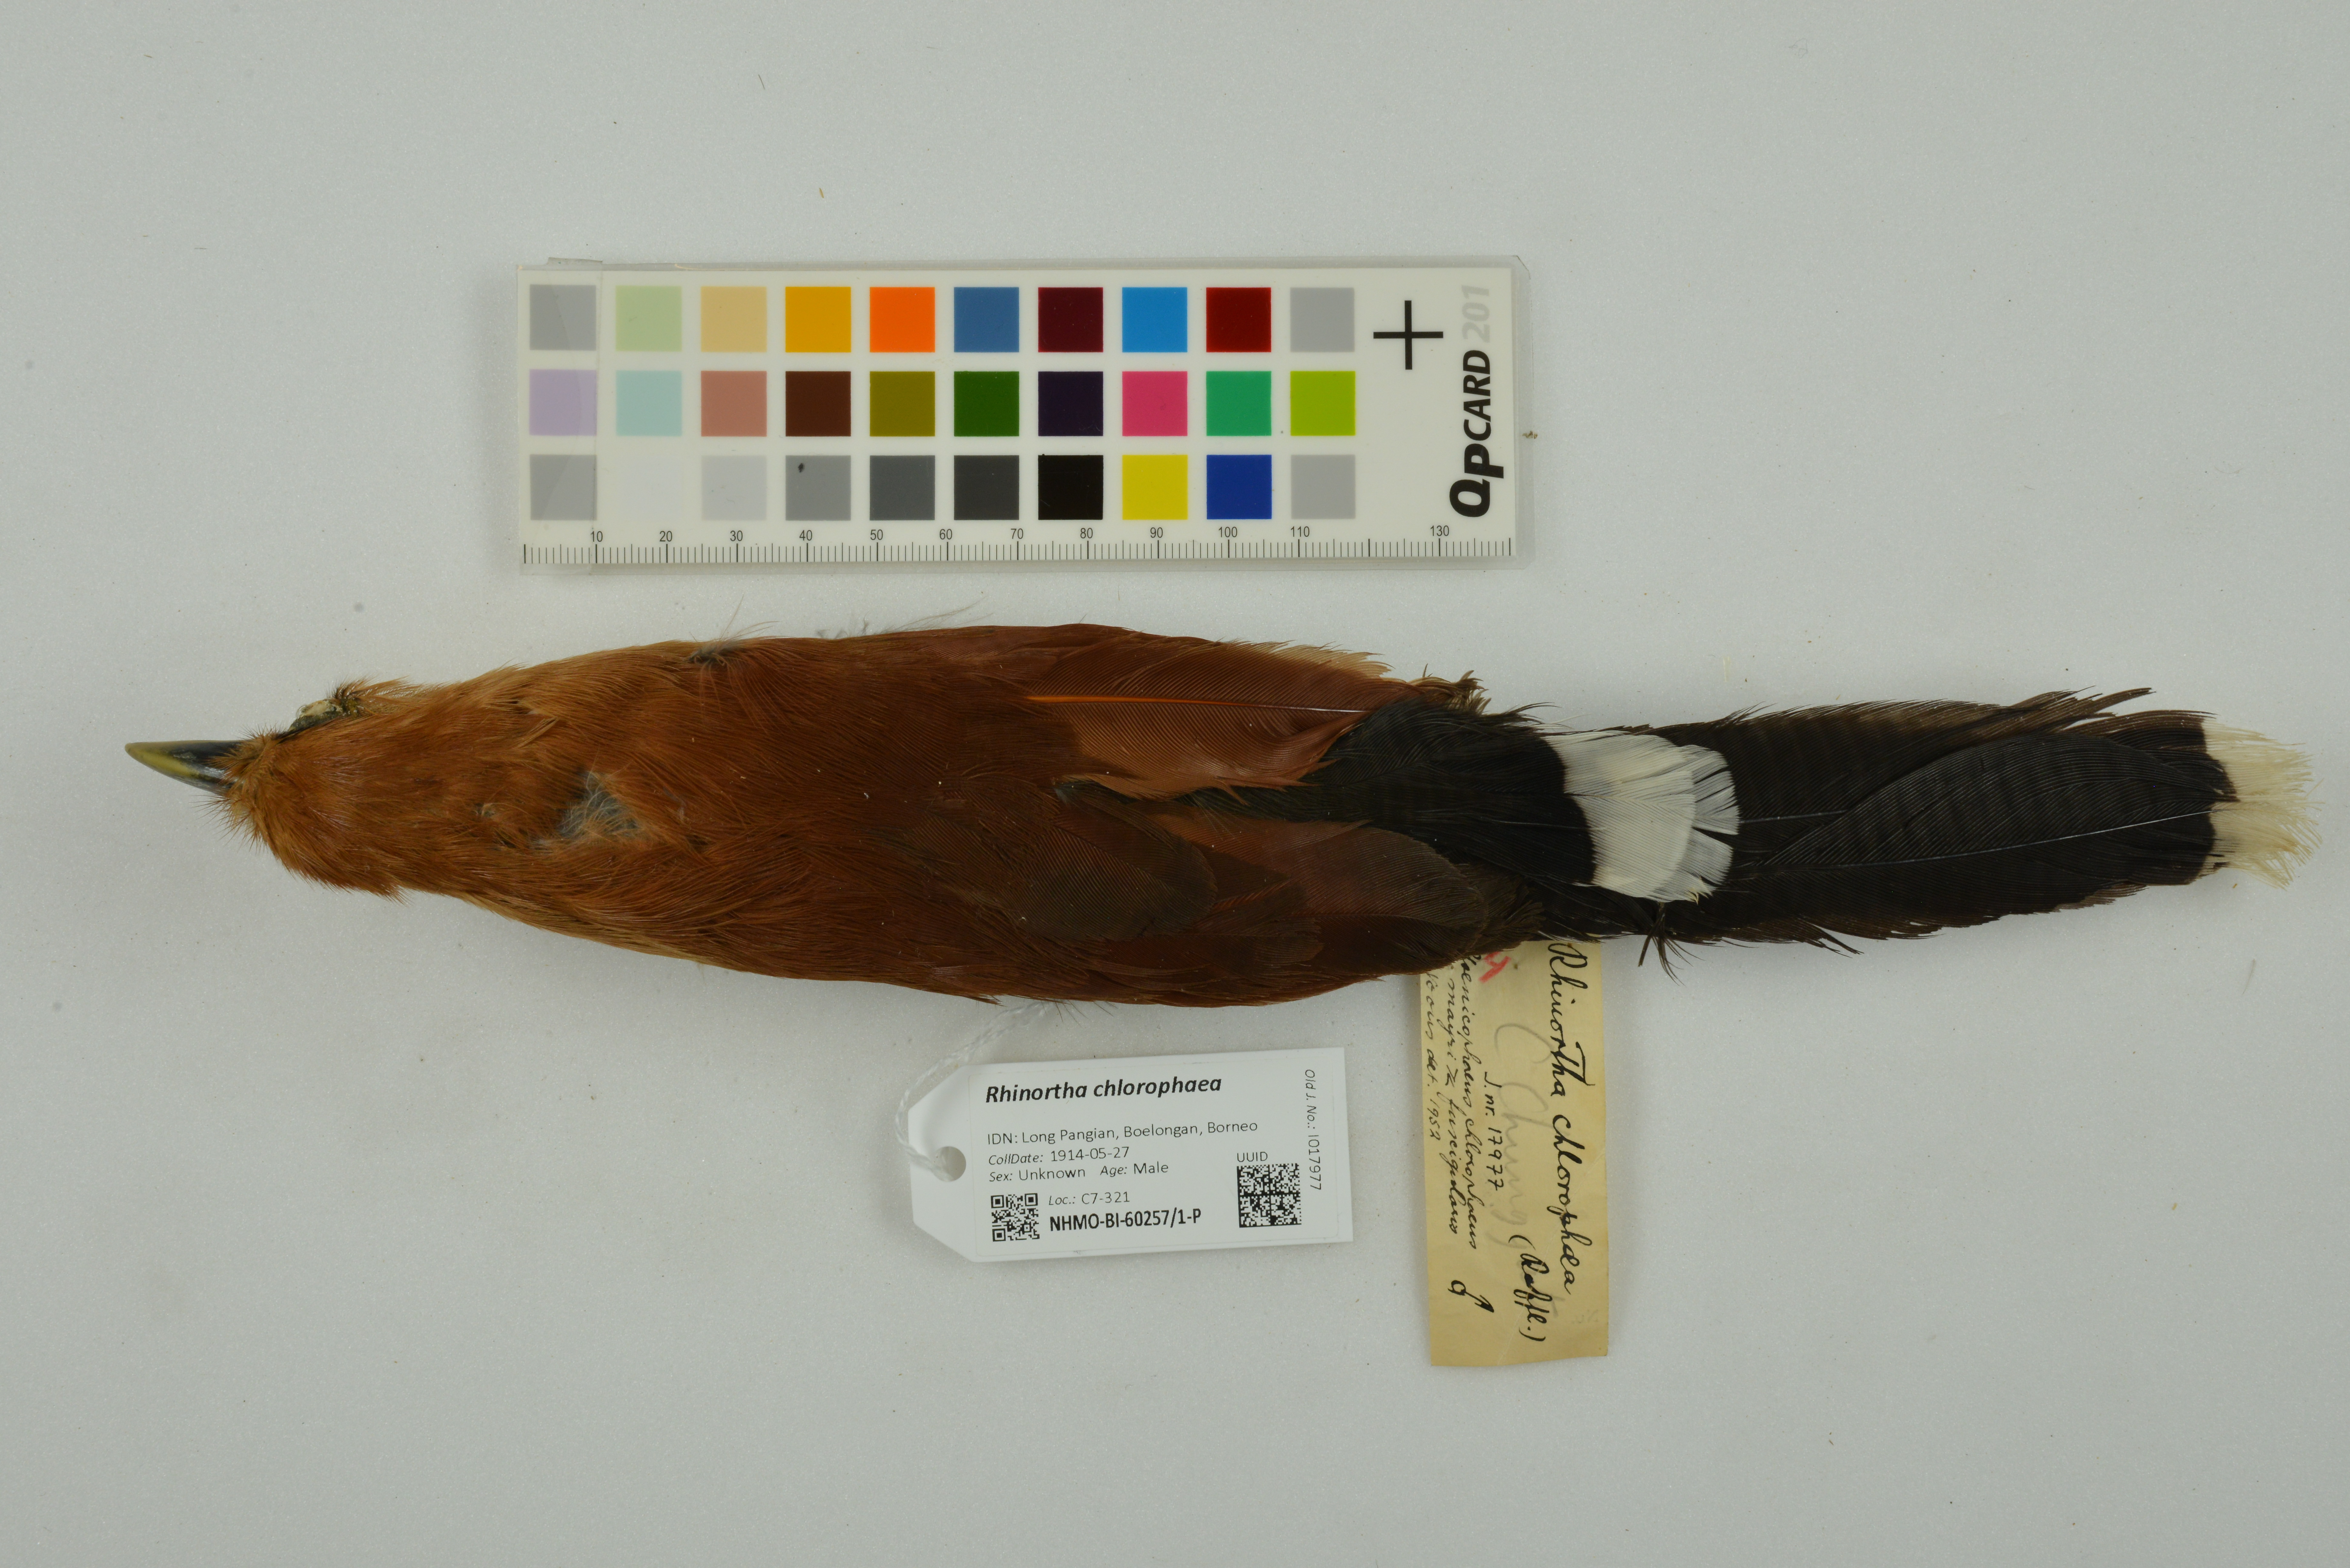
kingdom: Animalia
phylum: Chordata
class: Aves
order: Cuculiformes
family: Cuculidae
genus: Rhinortha
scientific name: Rhinortha chlorophaea
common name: Raffles's malkoha
